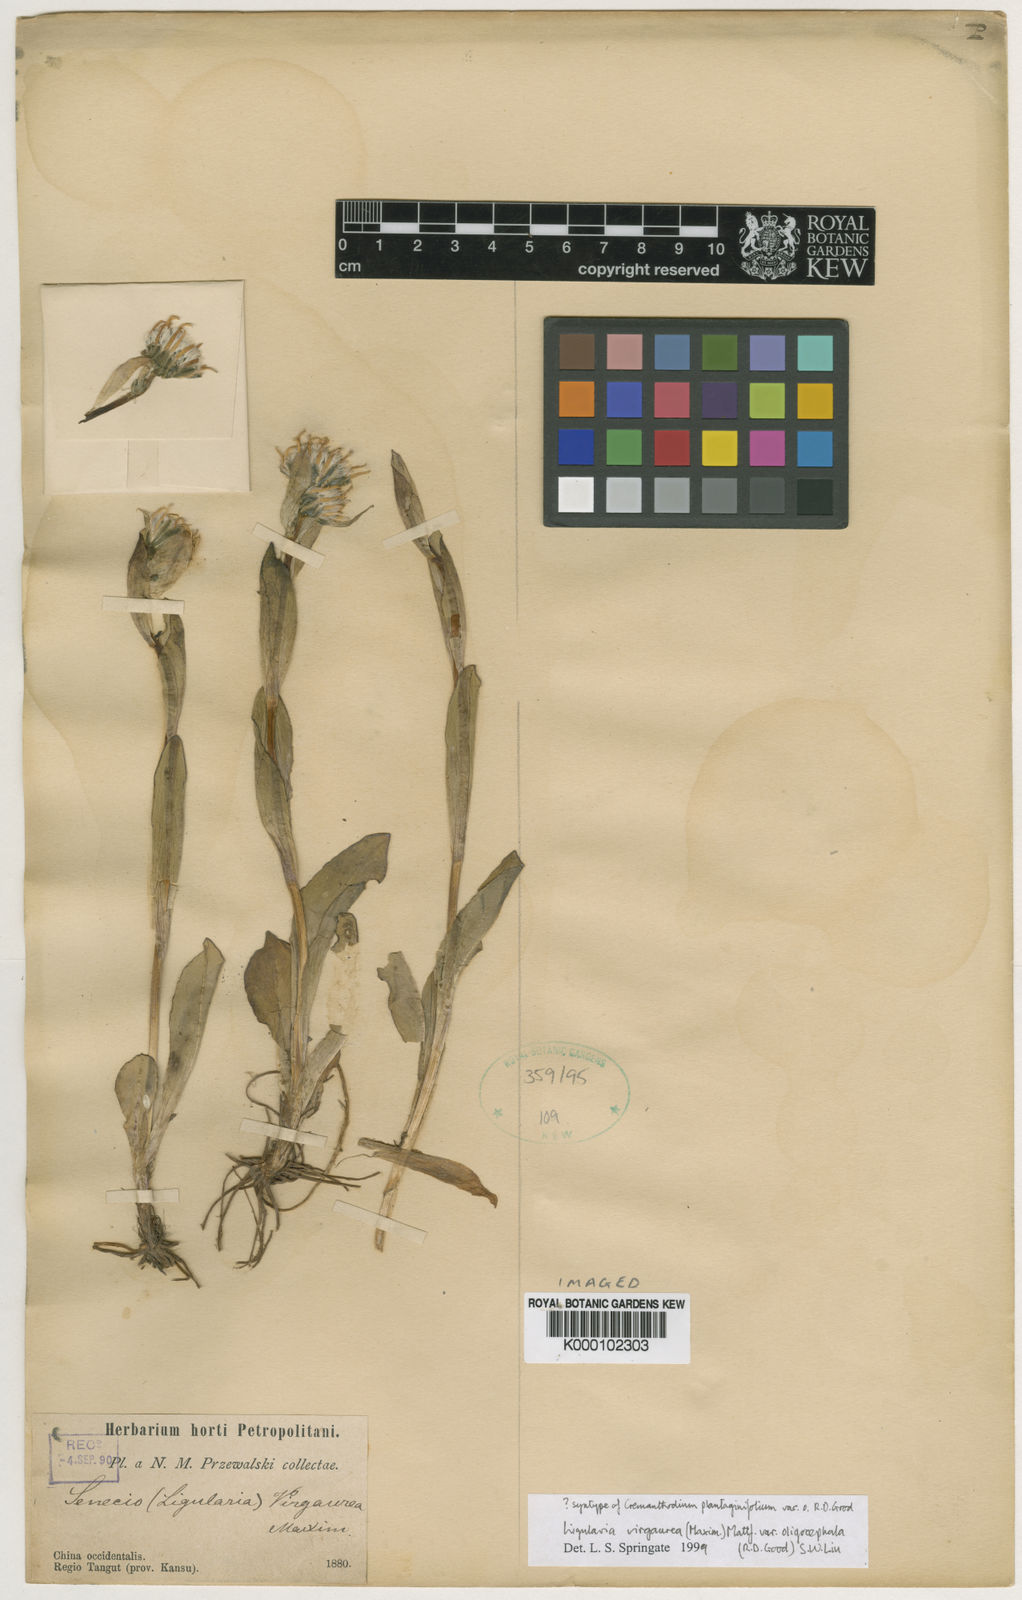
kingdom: Plantae
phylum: Tracheophyta
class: Magnoliopsida
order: Asterales
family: Asteraceae
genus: Ligularia
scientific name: Ligularia virgaurea
